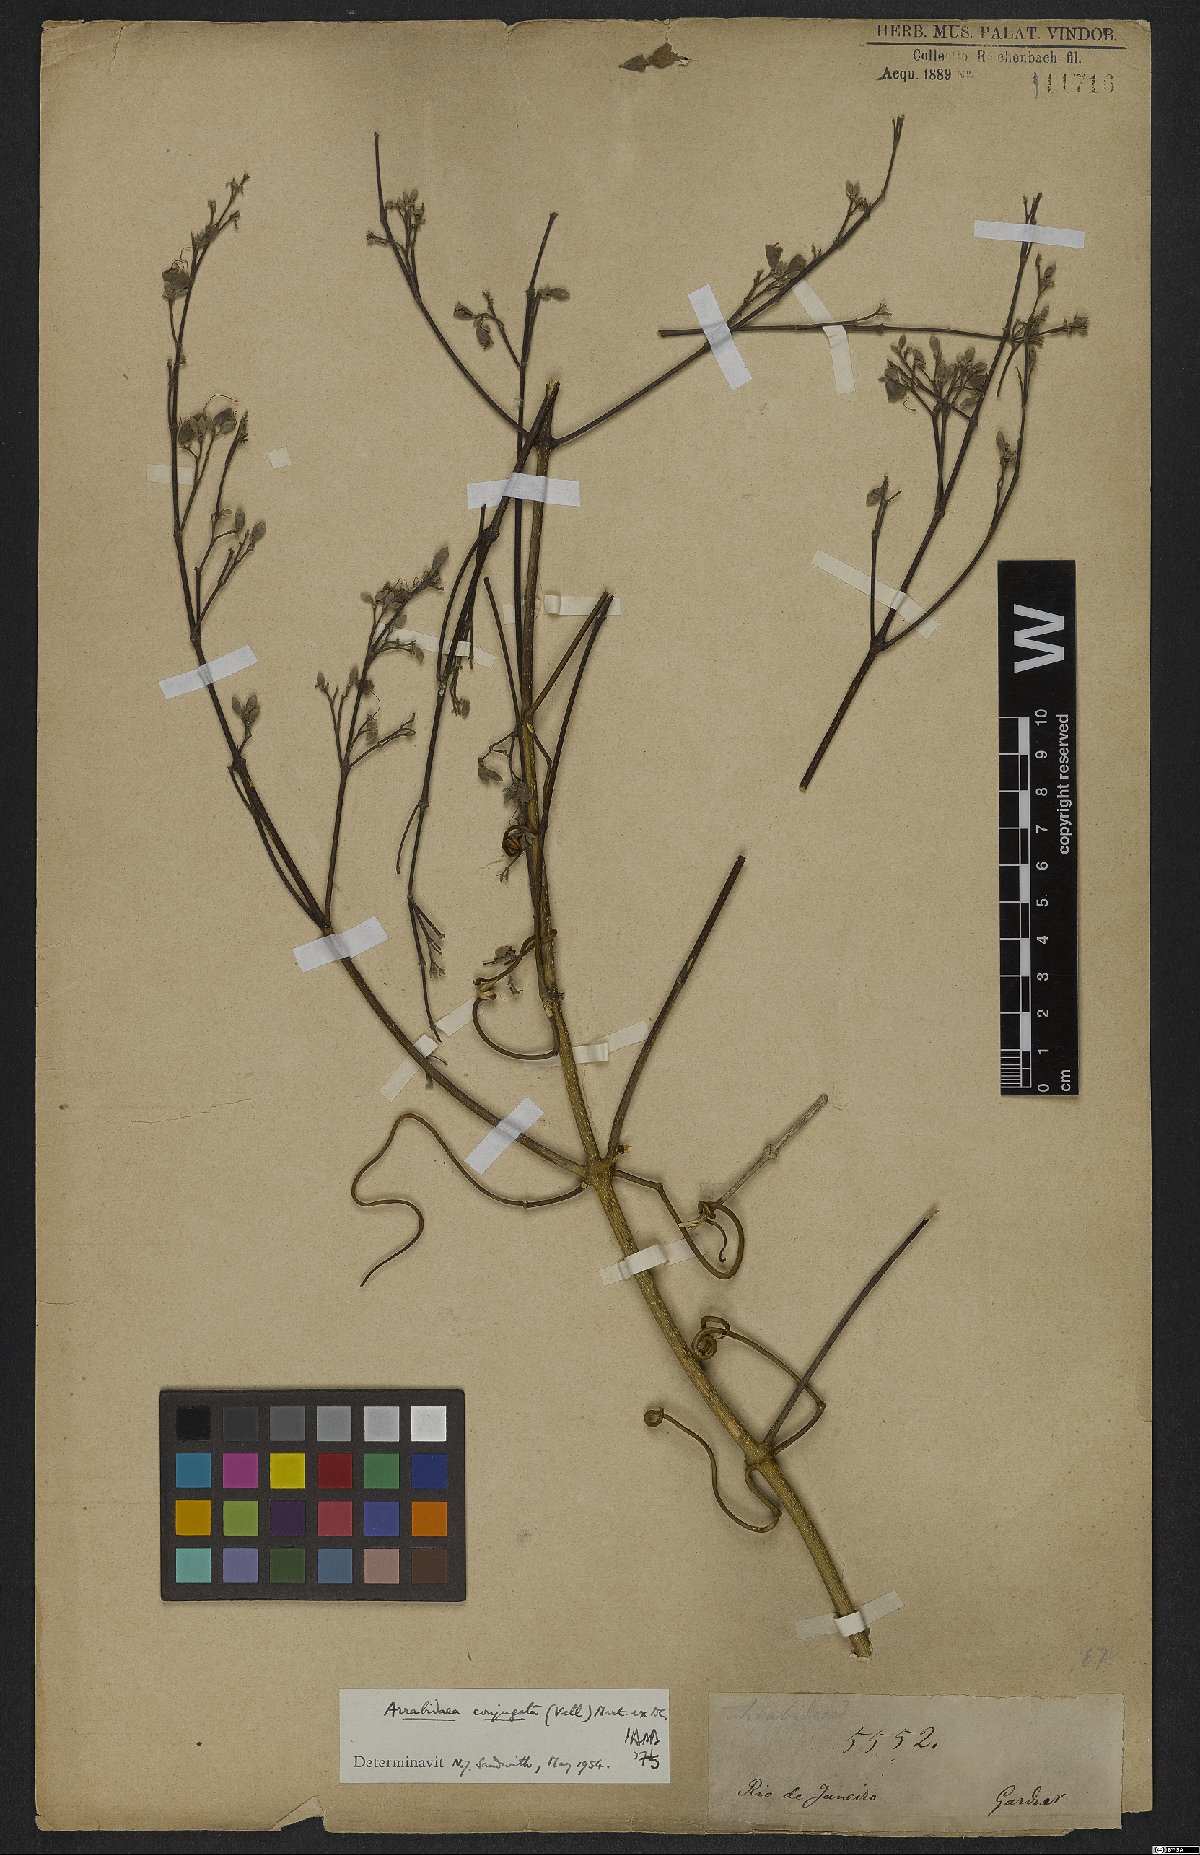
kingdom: Plantae
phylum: Tracheophyta
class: Magnoliopsida
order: Lamiales
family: Bignoniaceae
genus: Fridericia
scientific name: Fridericia conjugata
